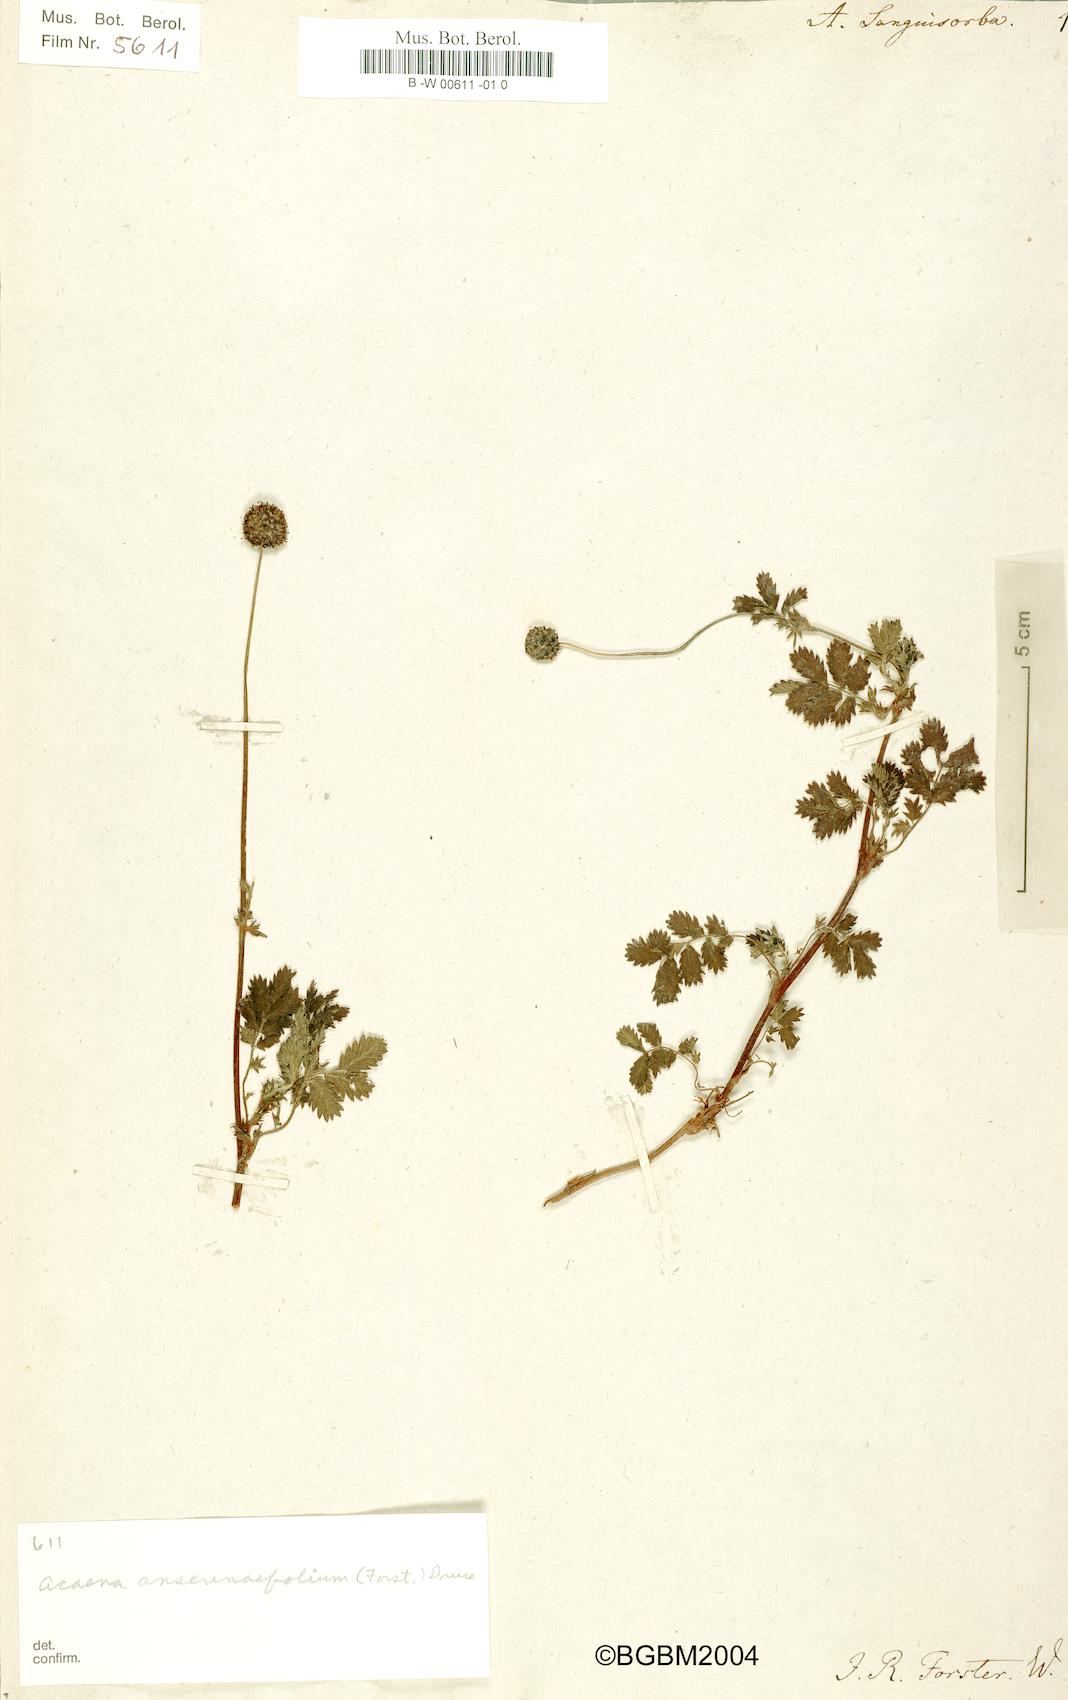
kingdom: Plantae
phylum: Tracheophyta
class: Magnoliopsida
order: Rosales
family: Rosaceae
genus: Acaena
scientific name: Acaena anserinifolia
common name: Bronze pirri-pirri-bur
